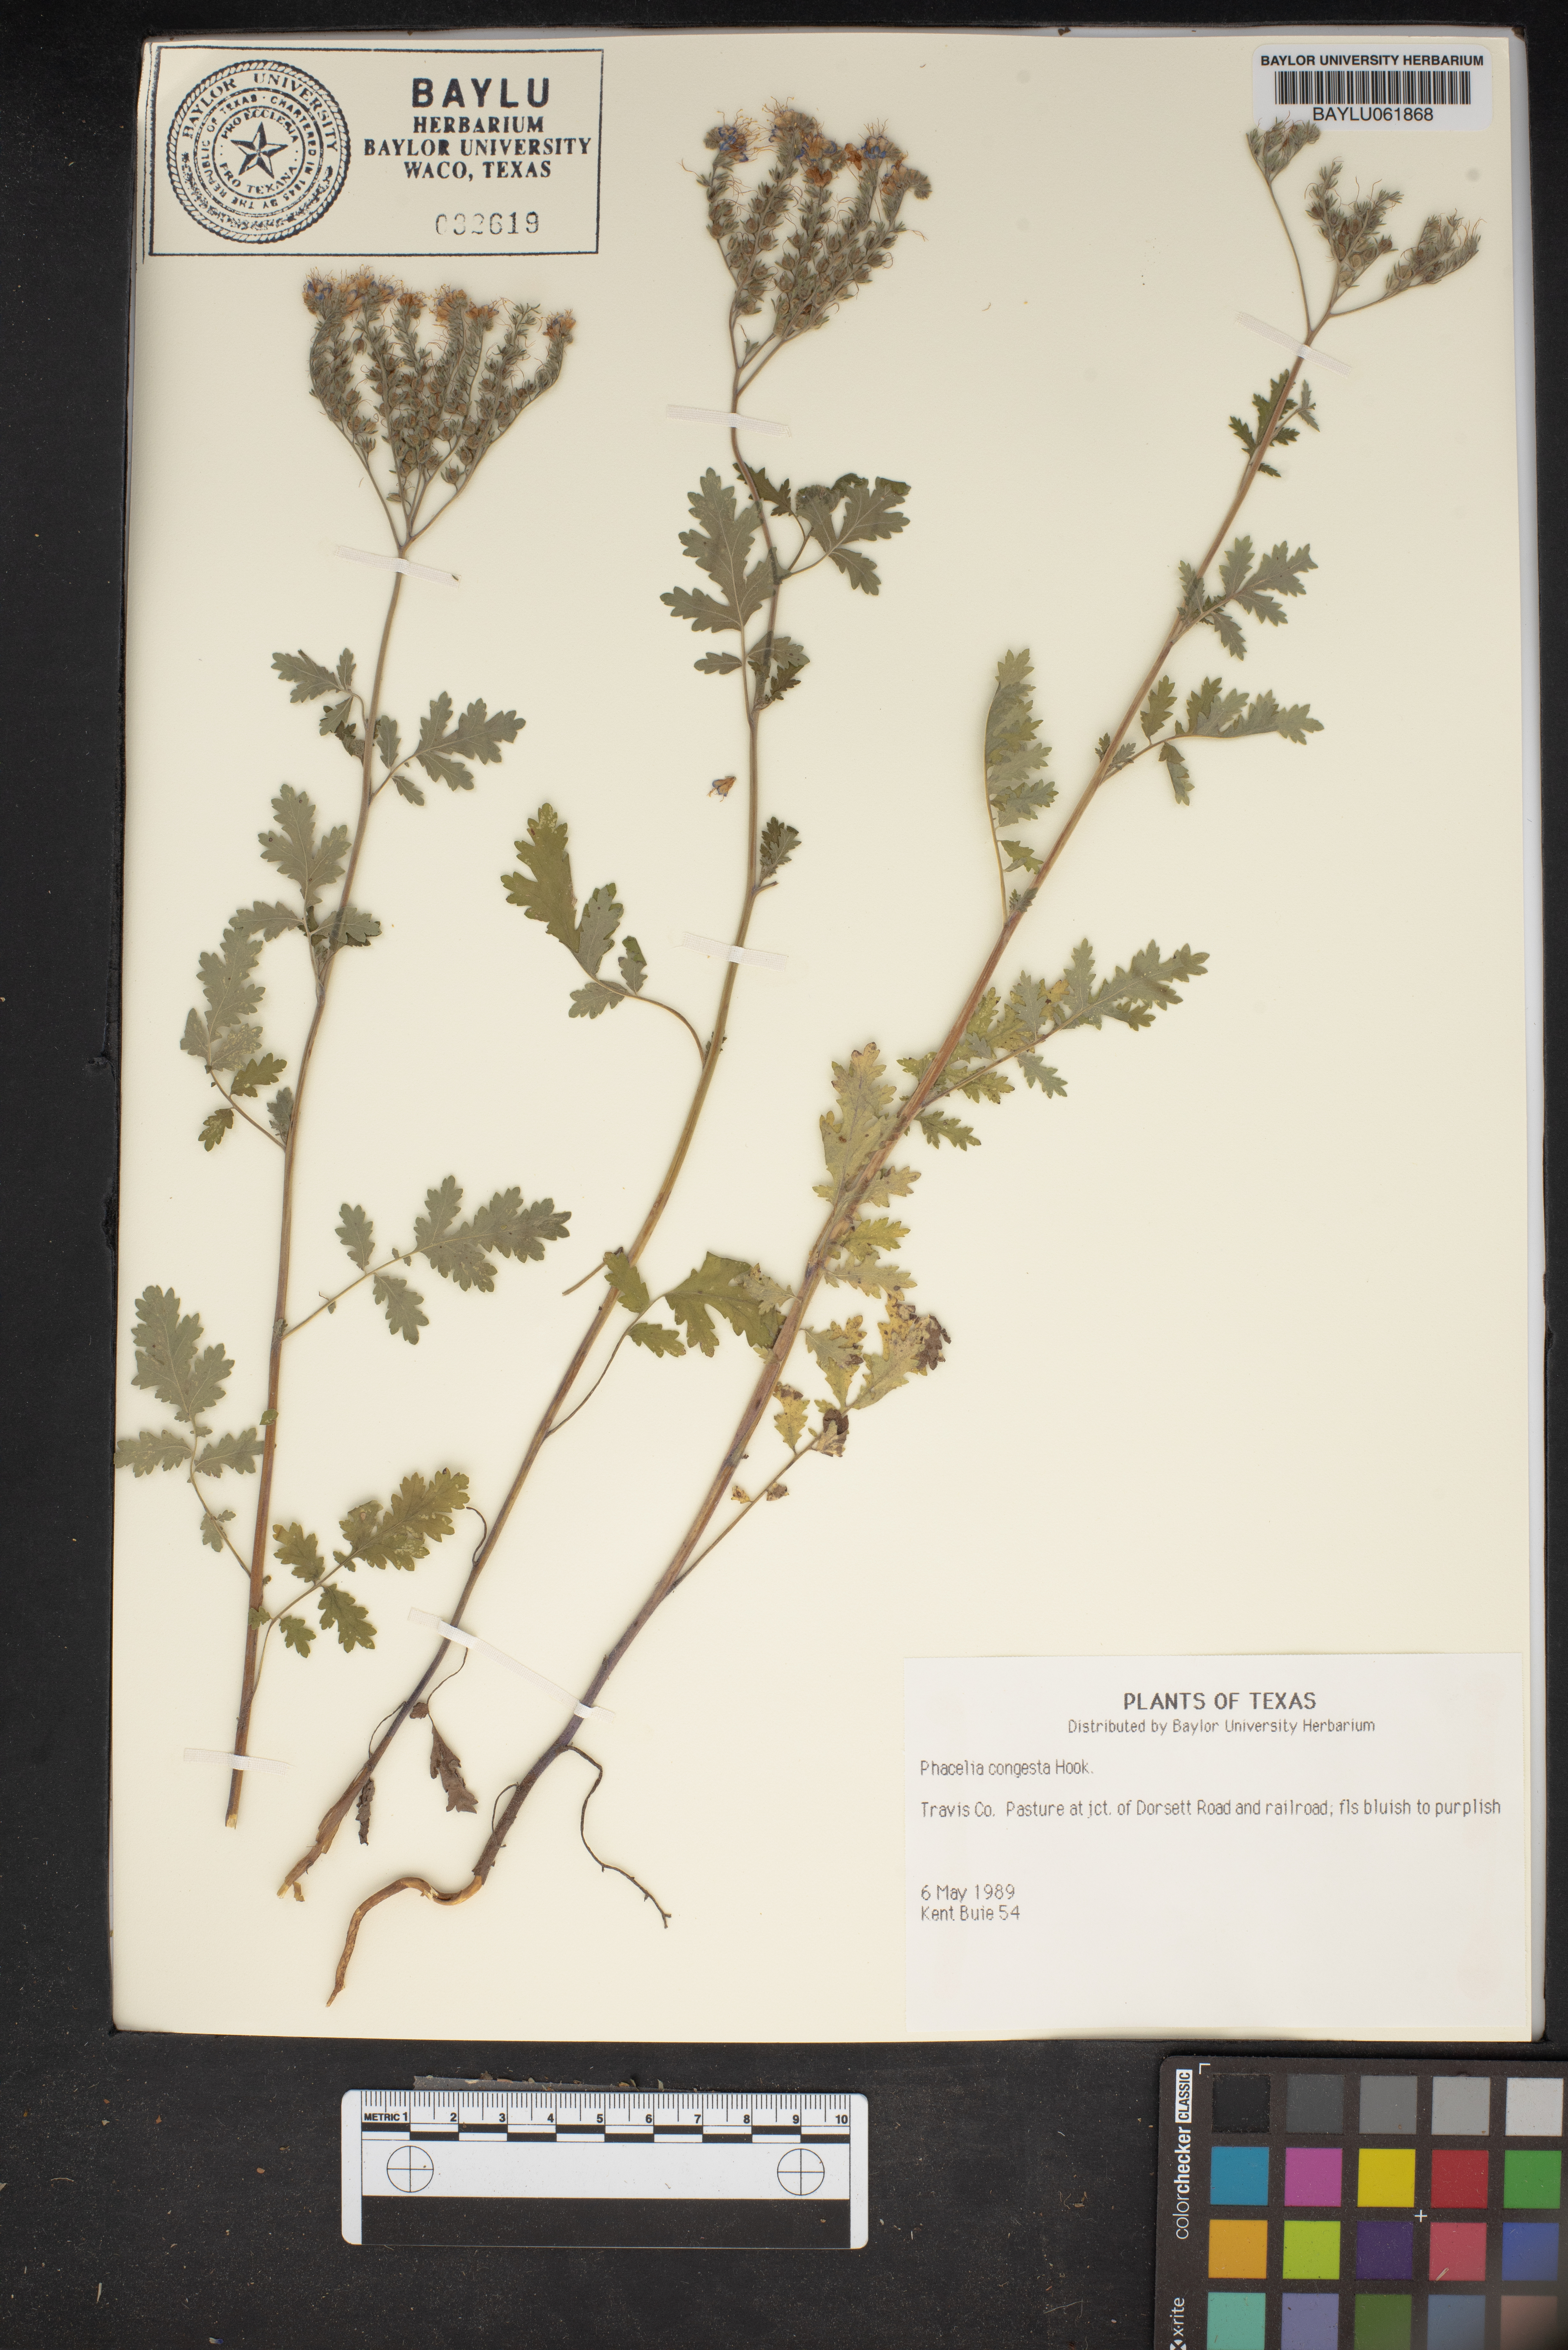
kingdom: Plantae
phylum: Tracheophyta
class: Magnoliopsida
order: Boraginales
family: Hydrophyllaceae
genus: Phacelia
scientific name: Phacelia congesta
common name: Blue curls
